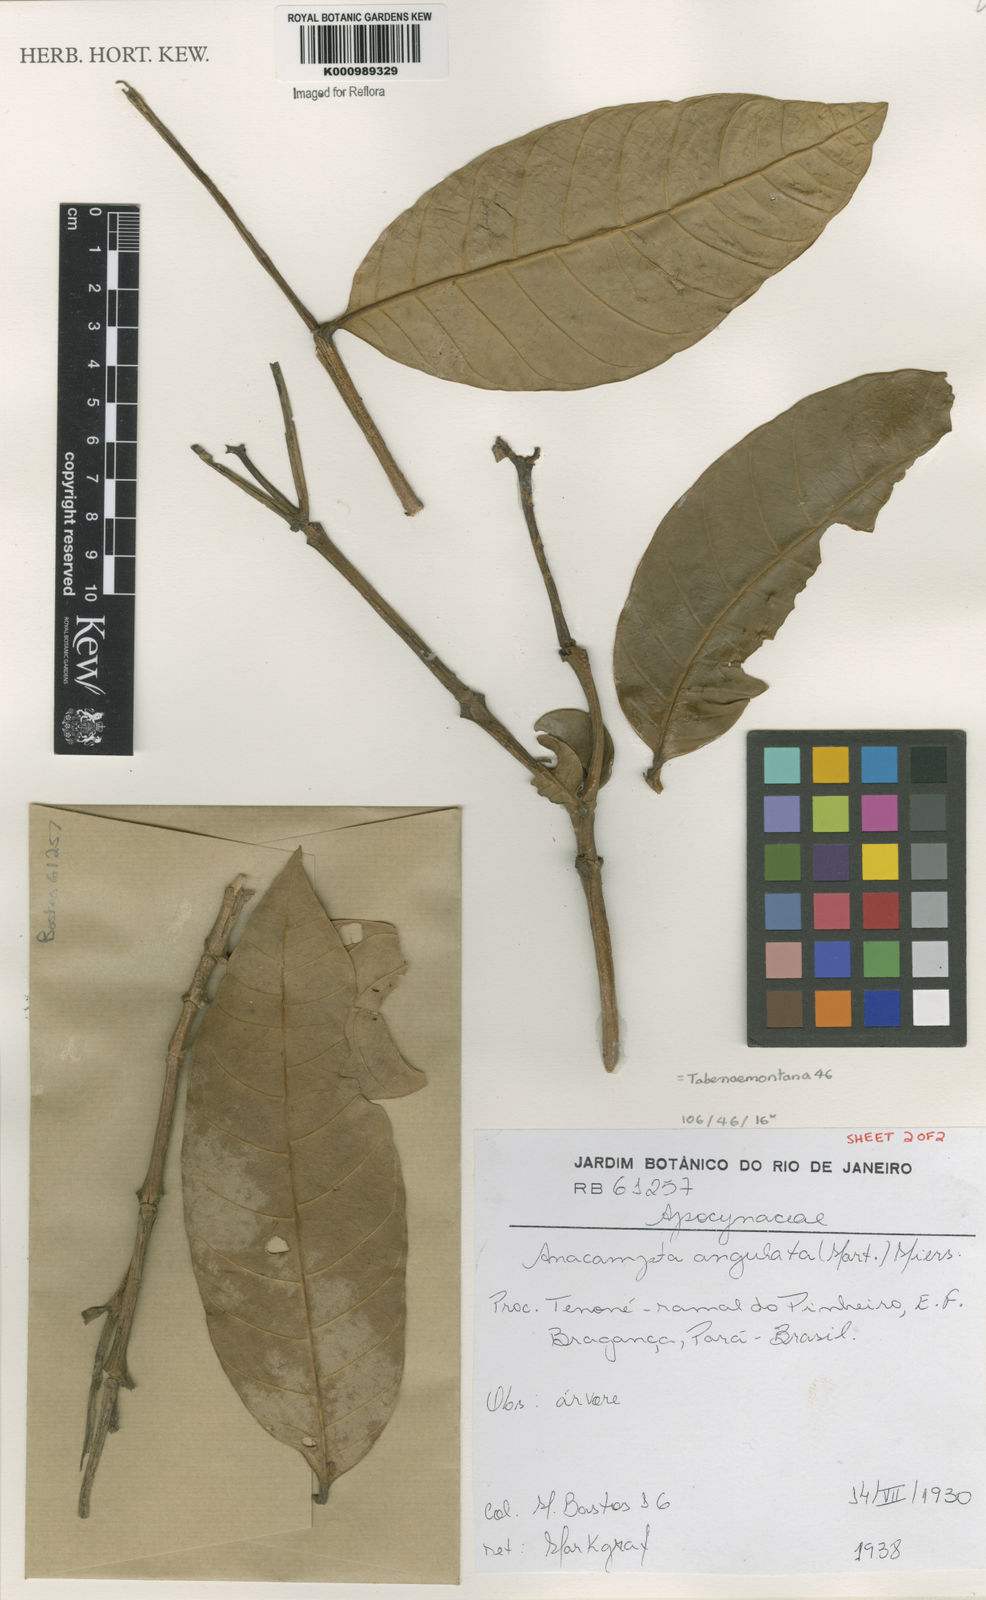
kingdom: Plantae
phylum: Tracheophyta
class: Magnoliopsida
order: Gentianales
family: Apocynaceae
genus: Tabernaemontana
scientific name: Tabernaemontana
